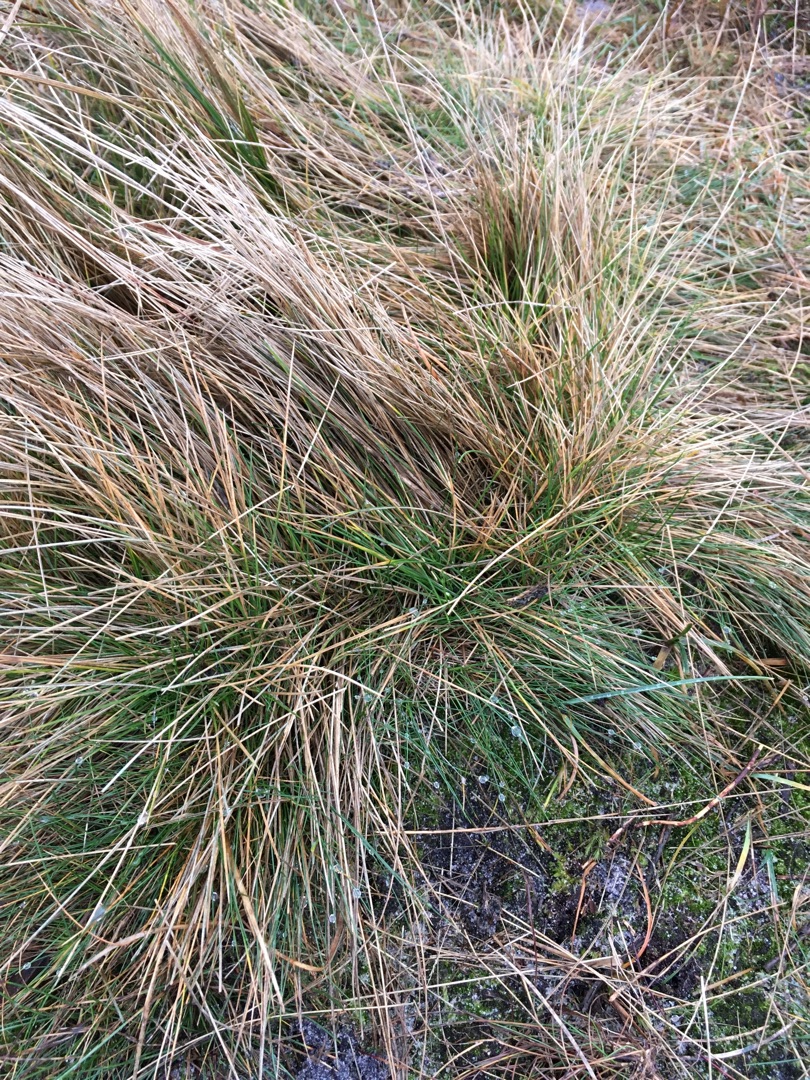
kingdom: Plantae
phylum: Tracheophyta
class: Liliopsida
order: Poales
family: Poaceae
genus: Nardus
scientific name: Nardus stricta
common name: Katteskæg
